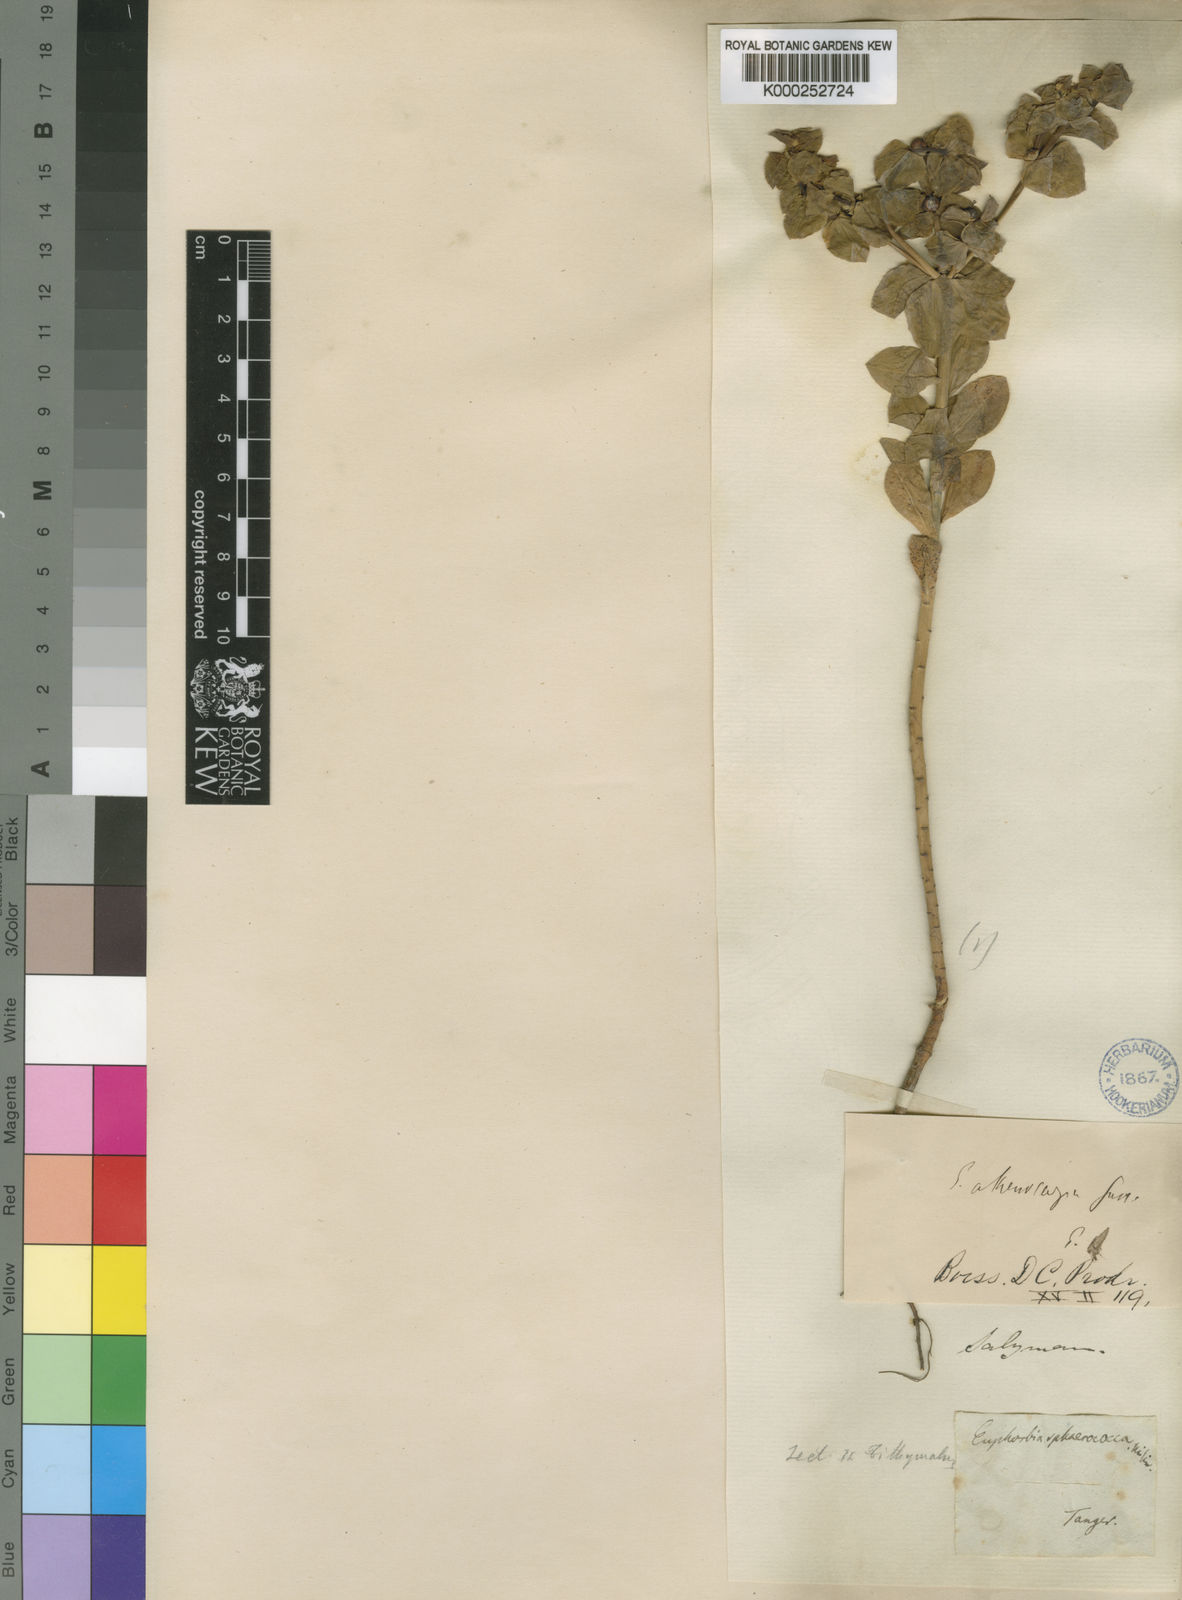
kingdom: Plantae
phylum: Tracheophyta
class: Magnoliopsida
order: Malpighiales
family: Euphorbiaceae
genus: Euphorbia
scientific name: Euphorbia akenocarpa
